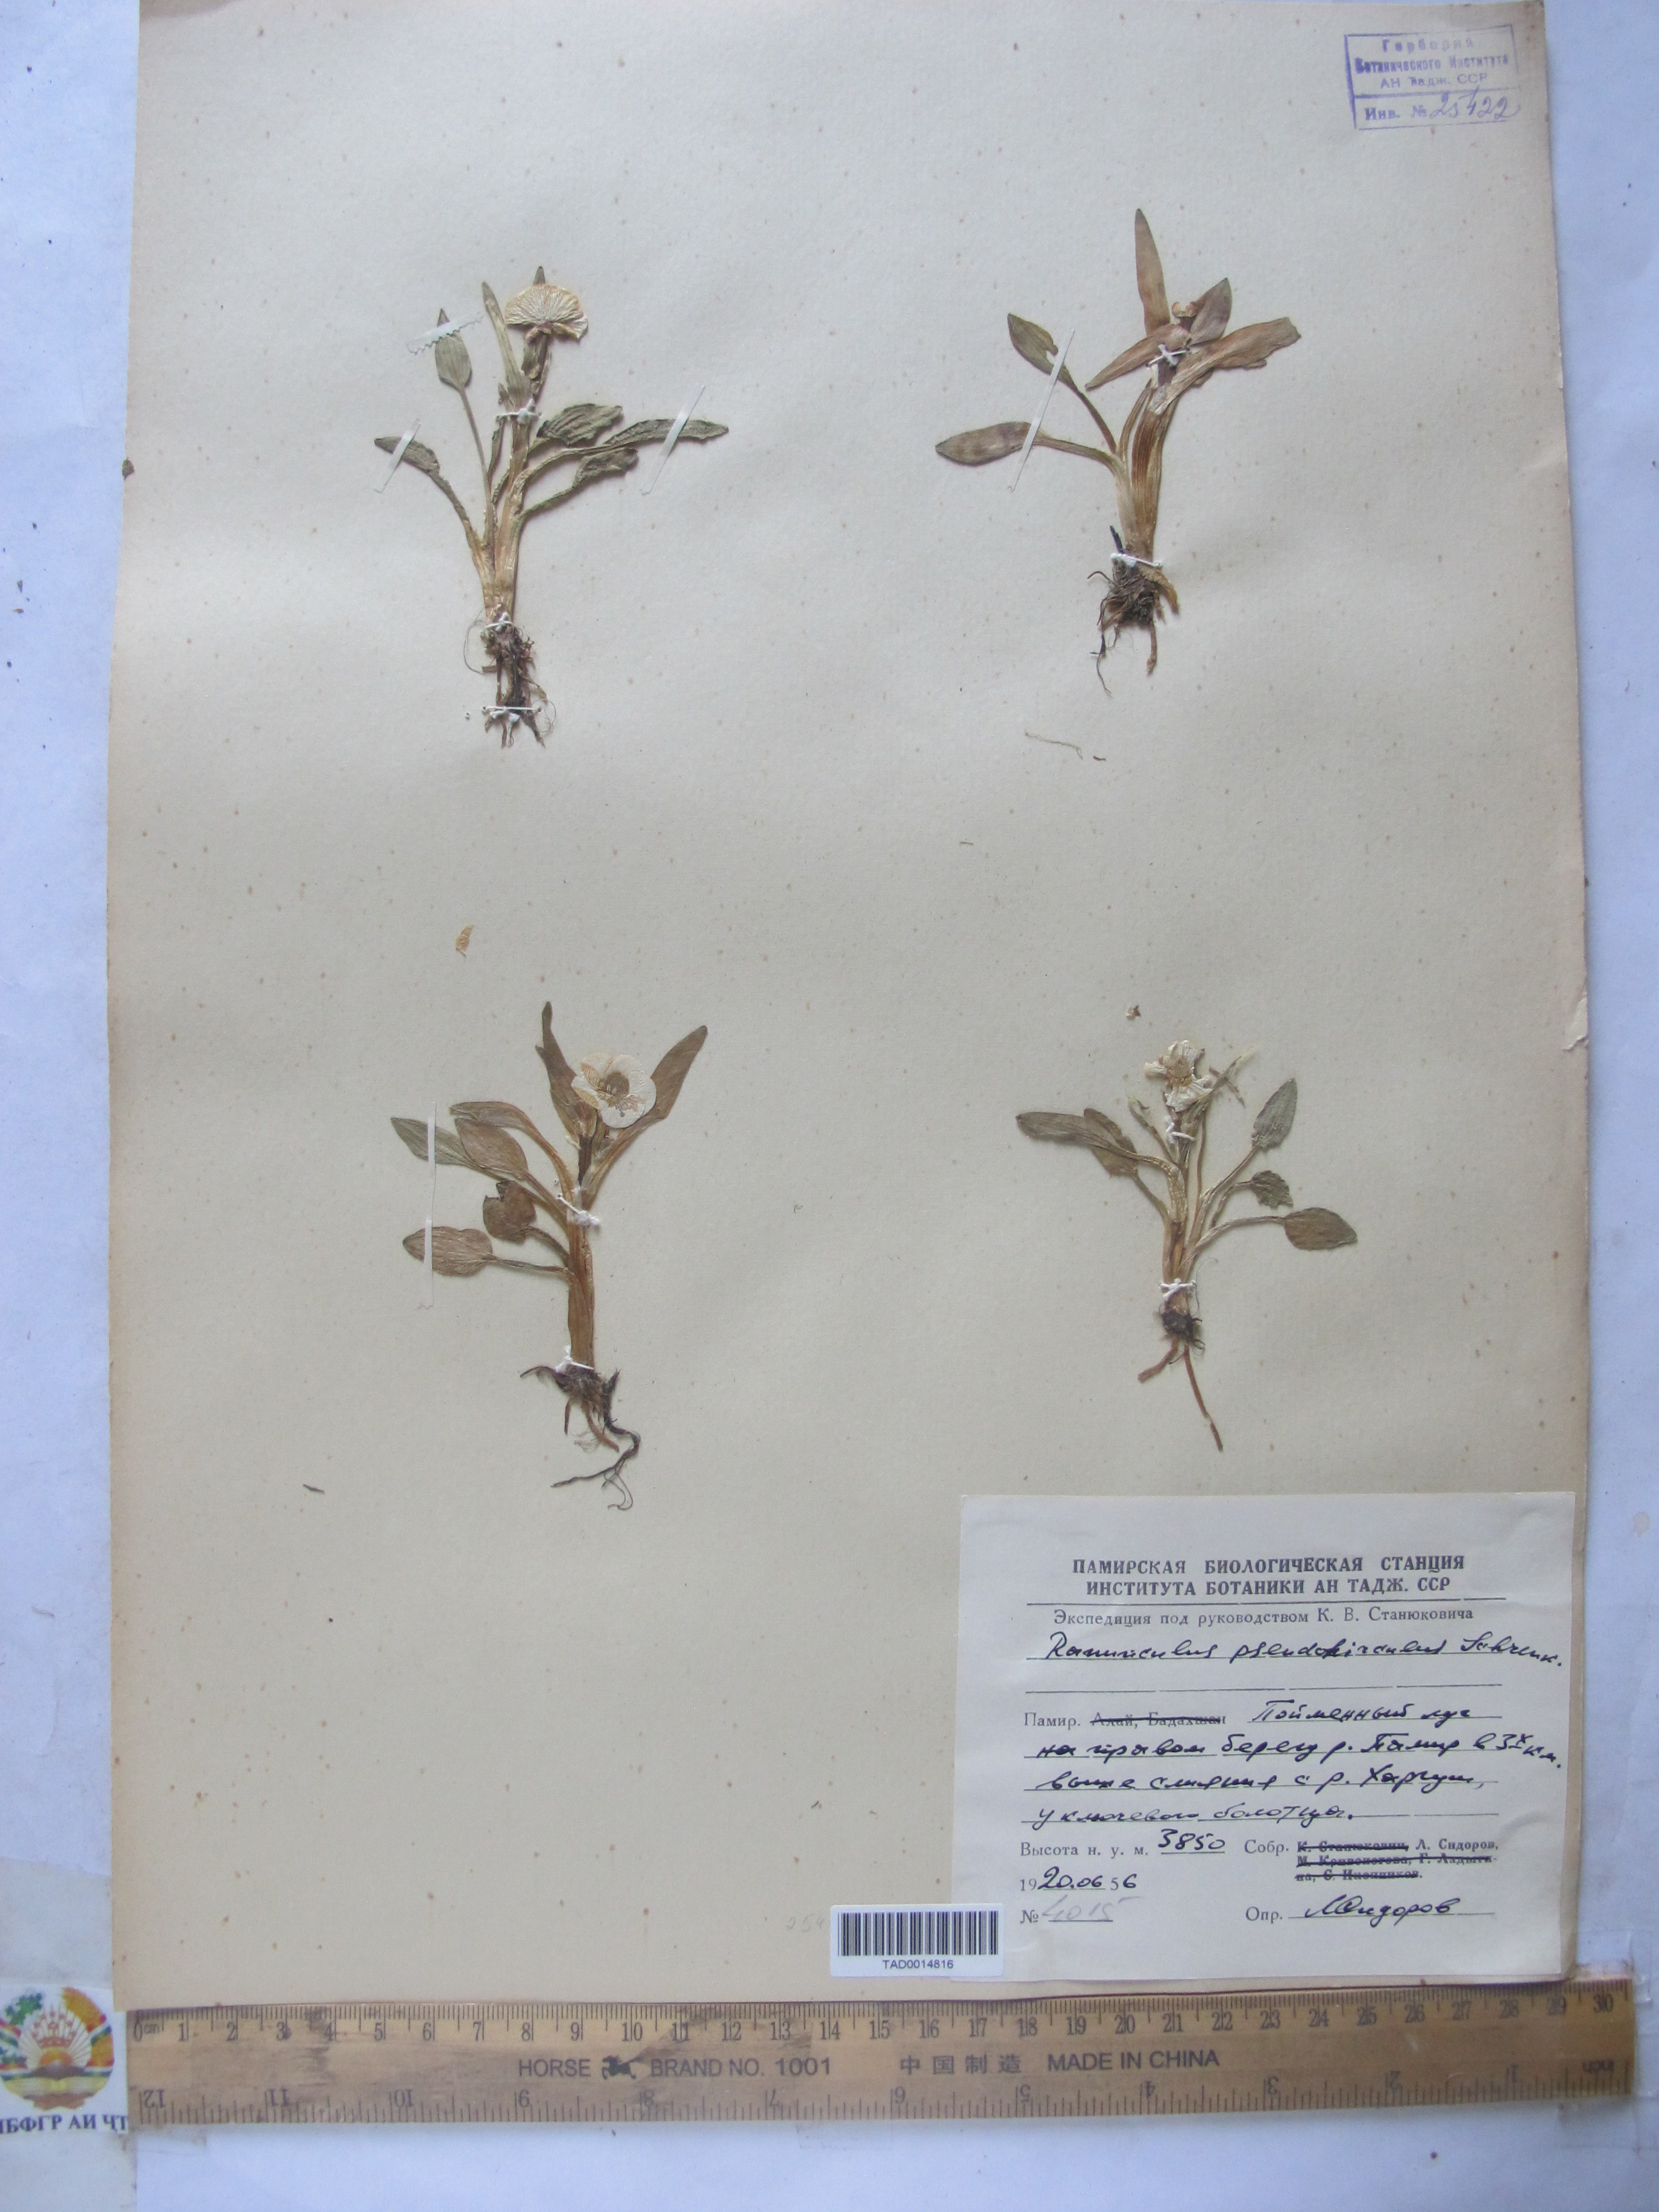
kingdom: Plantae
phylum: Tracheophyta
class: Magnoliopsida
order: Ranunculales
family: Ranunculaceae
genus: Ranunculus
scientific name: Ranunculus pseudohirculus
